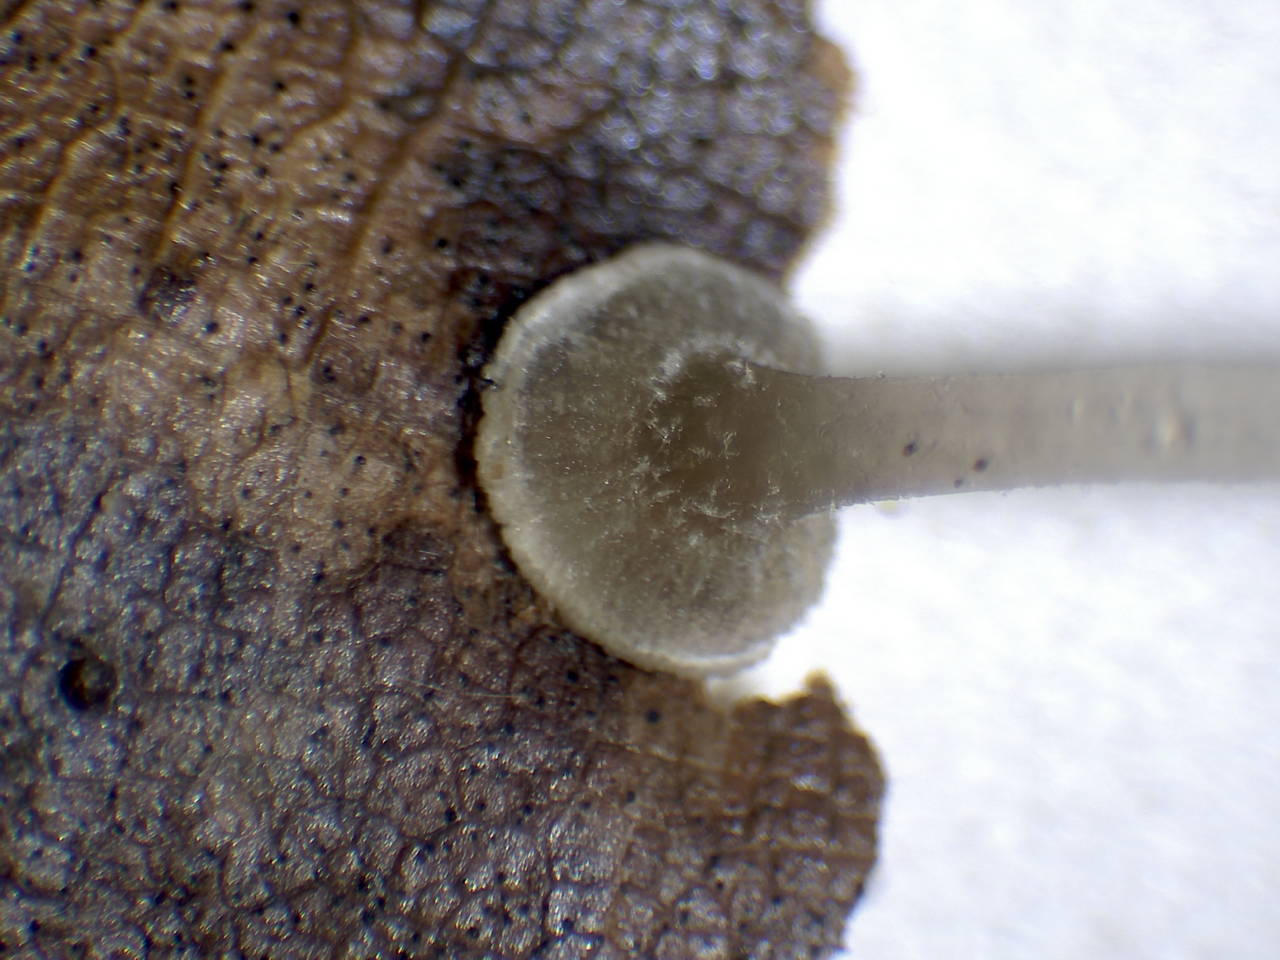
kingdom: Fungi
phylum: Basidiomycota
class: Agaricomycetes
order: Agaricales
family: Mycenaceae
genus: Mycena
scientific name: Mycena stylobates
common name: fureskivet huesvamp
